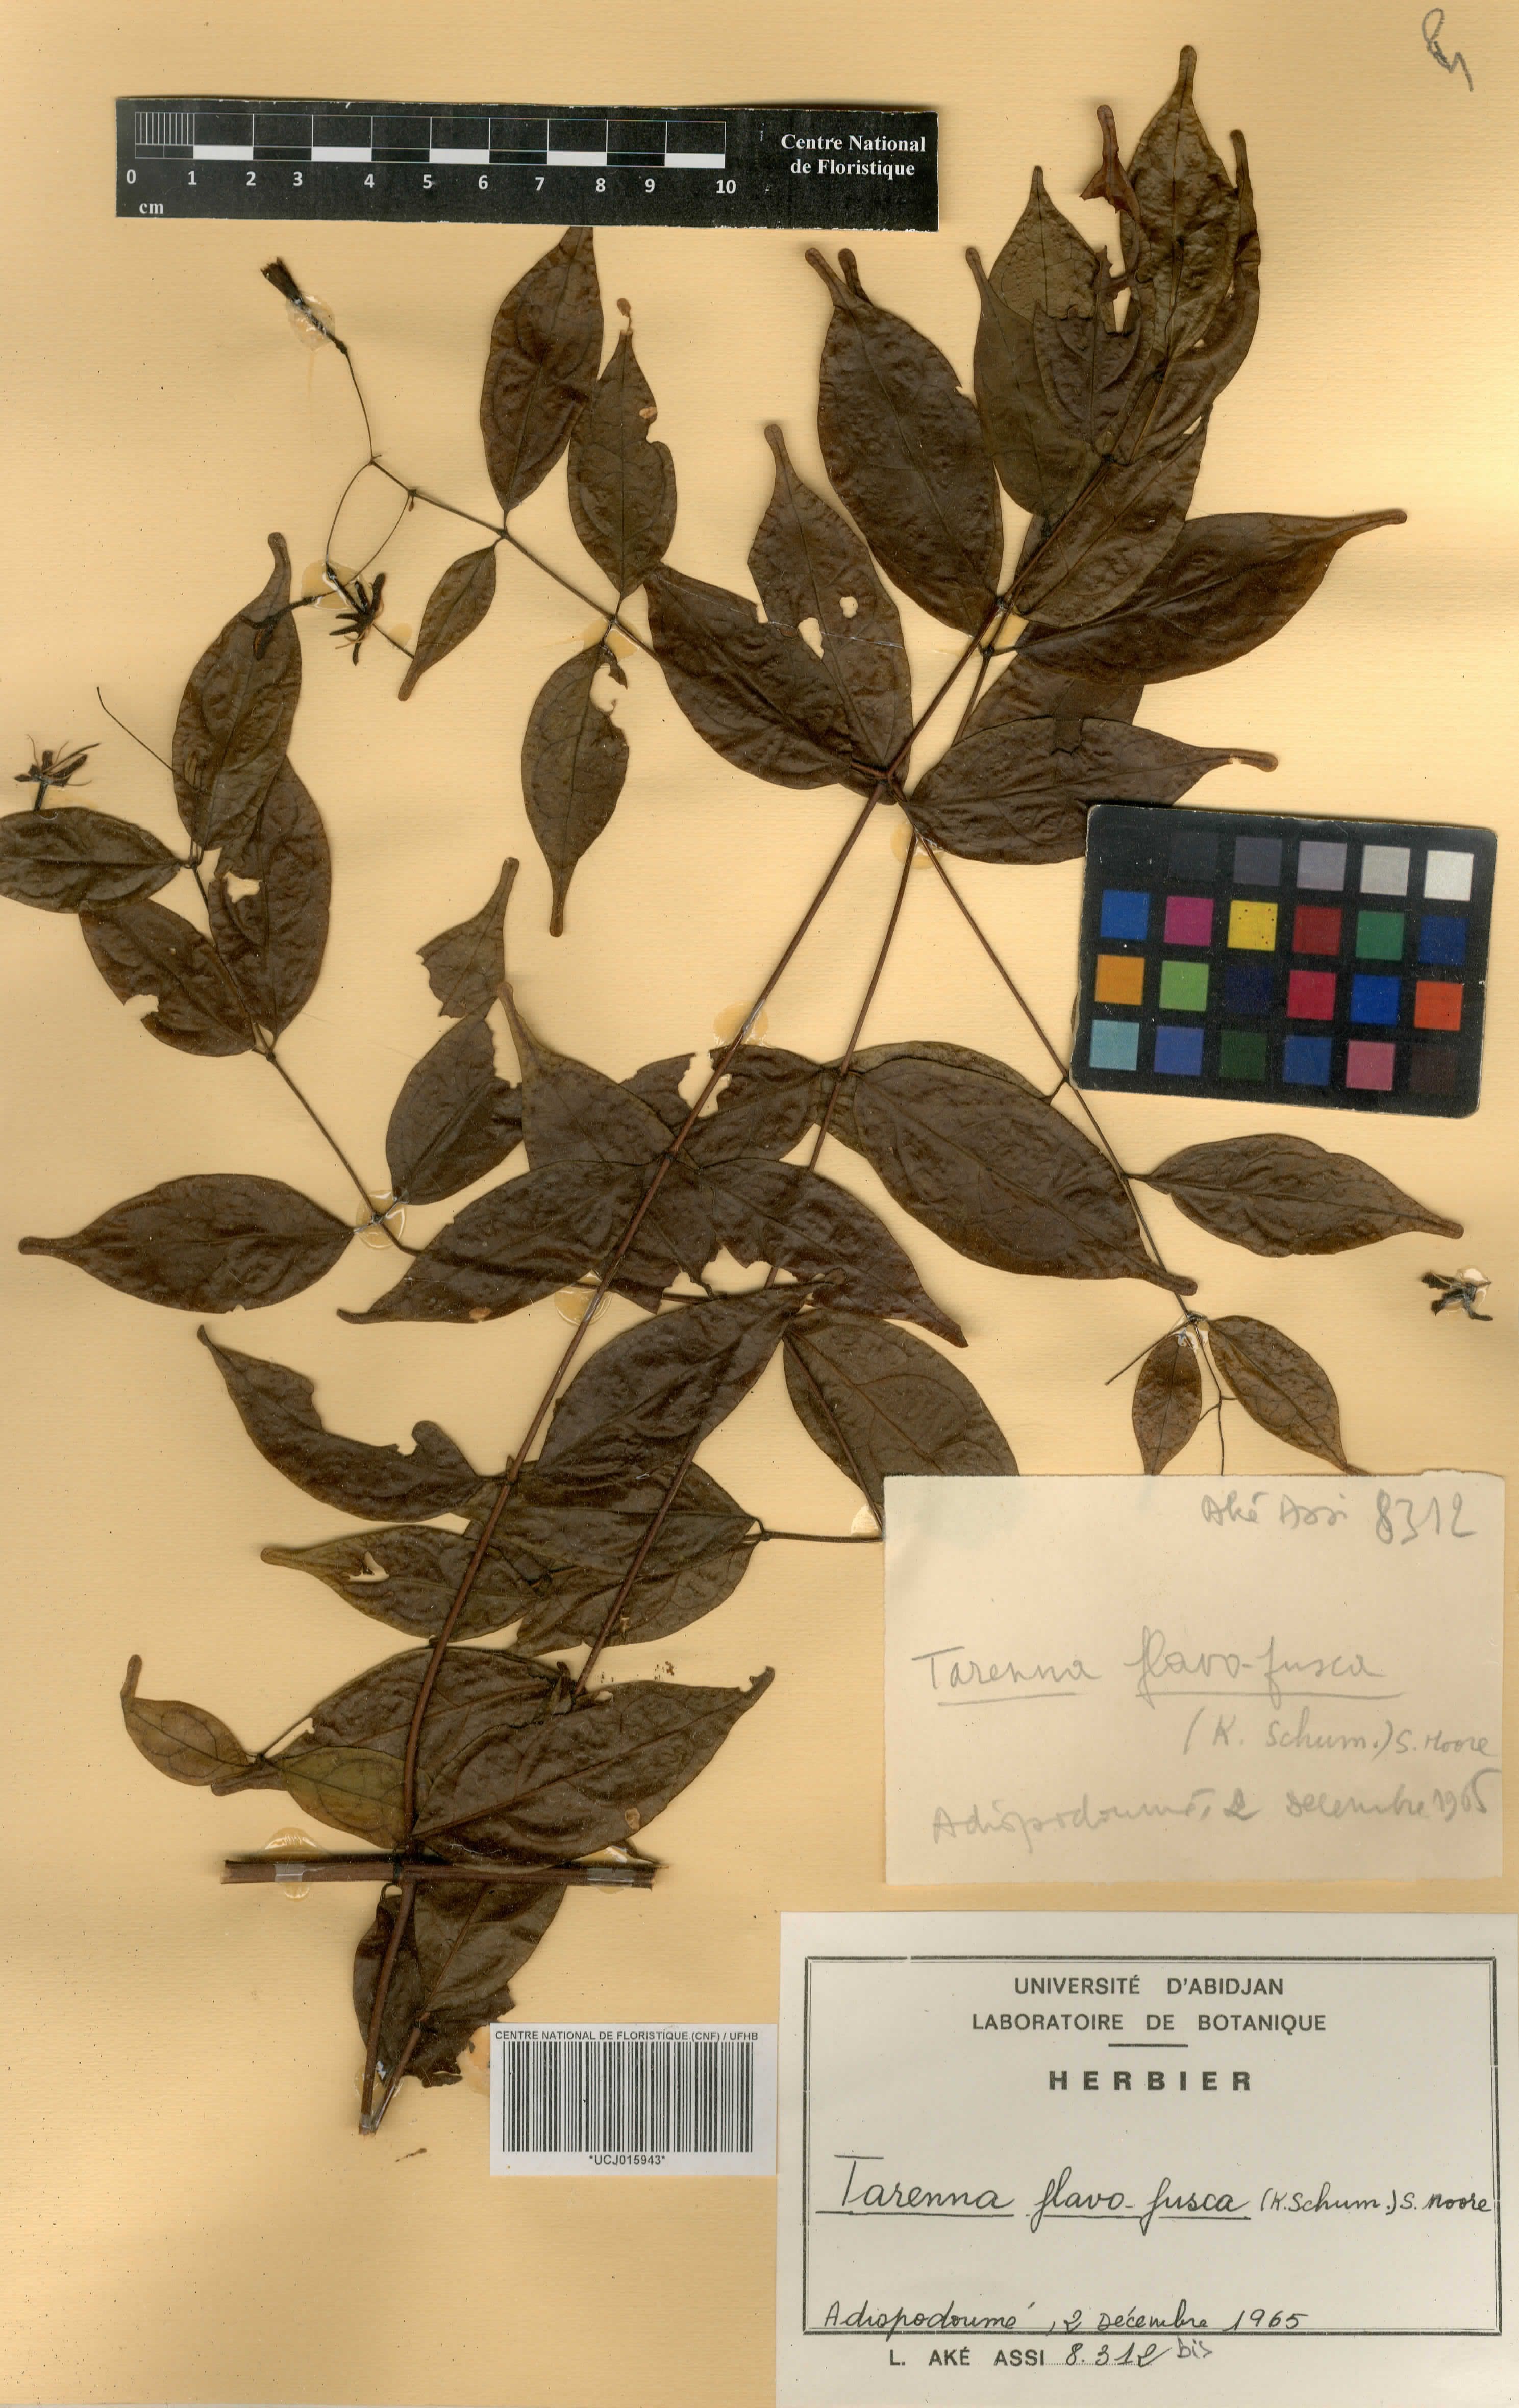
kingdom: Plantae
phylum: Tracheophyta
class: Magnoliopsida
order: Gentianales
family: Rubiaceae
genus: Tarenna
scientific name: Tarenna fuscoflava
